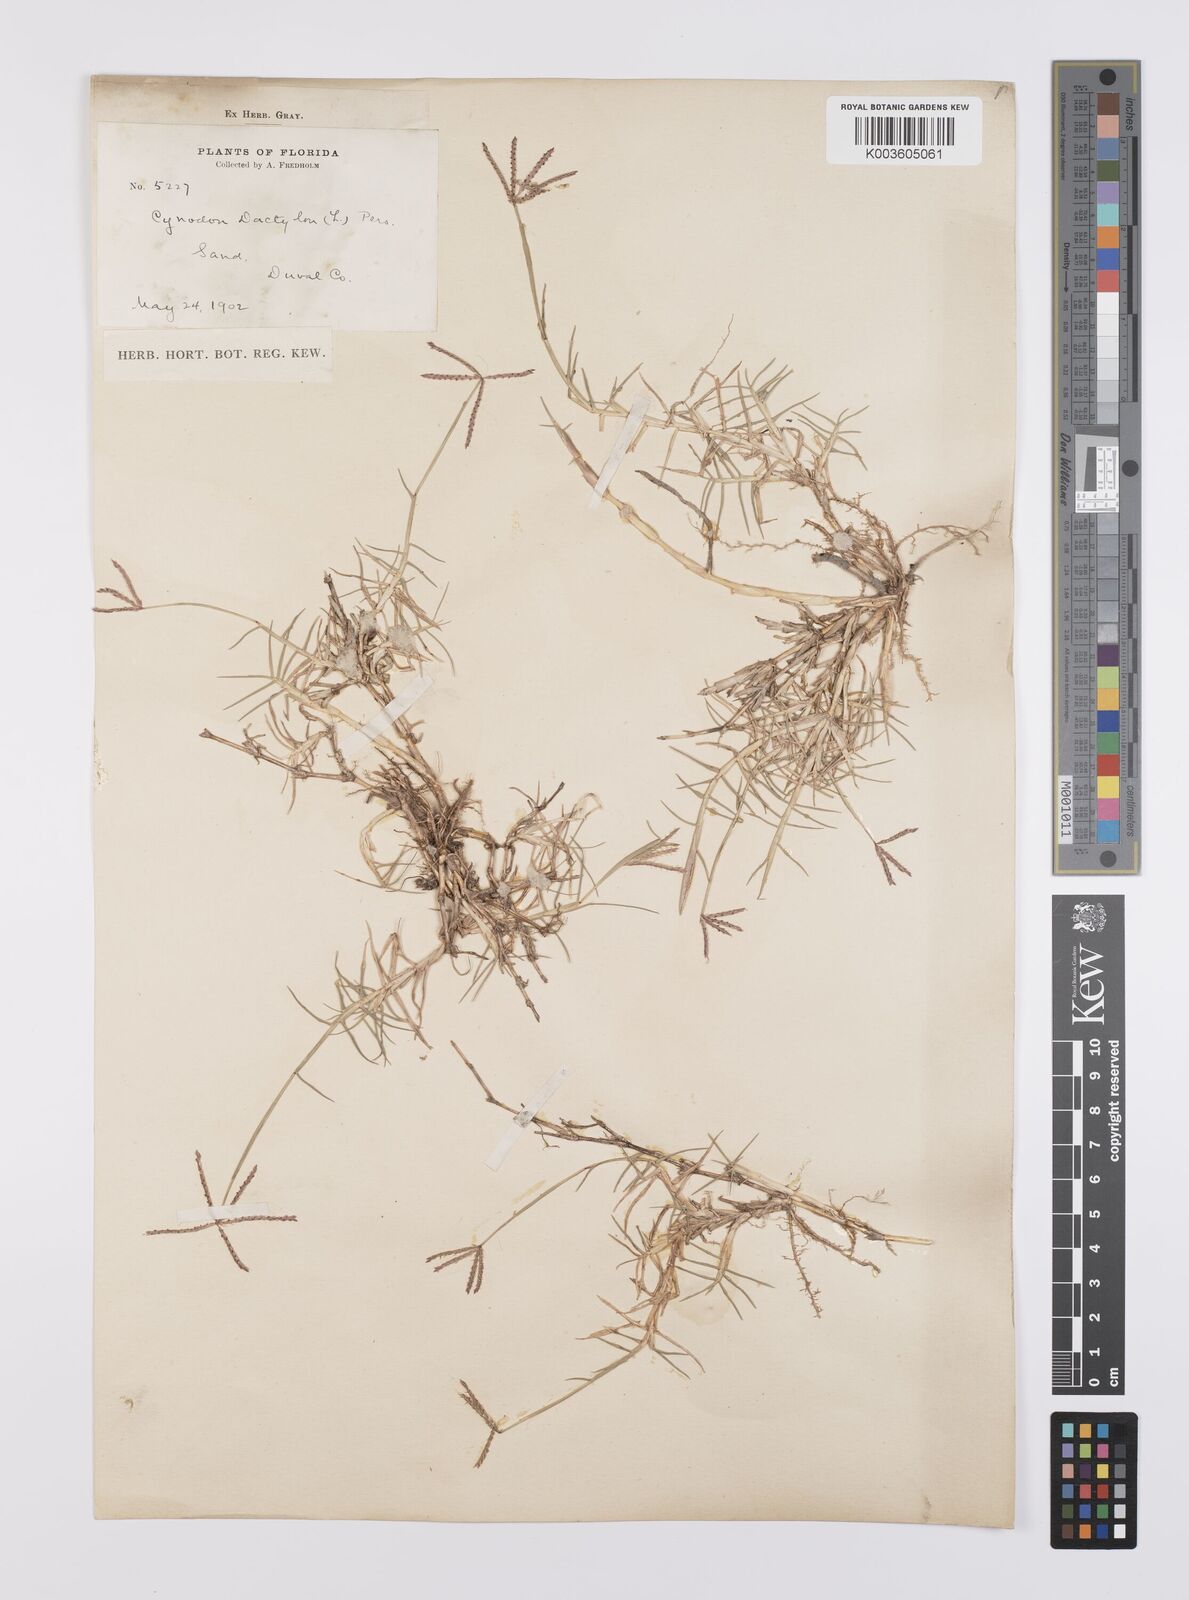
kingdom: Plantae
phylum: Tracheophyta
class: Liliopsida
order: Poales
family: Poaceae
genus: Cynodon
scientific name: Cynodon dactylon
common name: Bermuda grass
